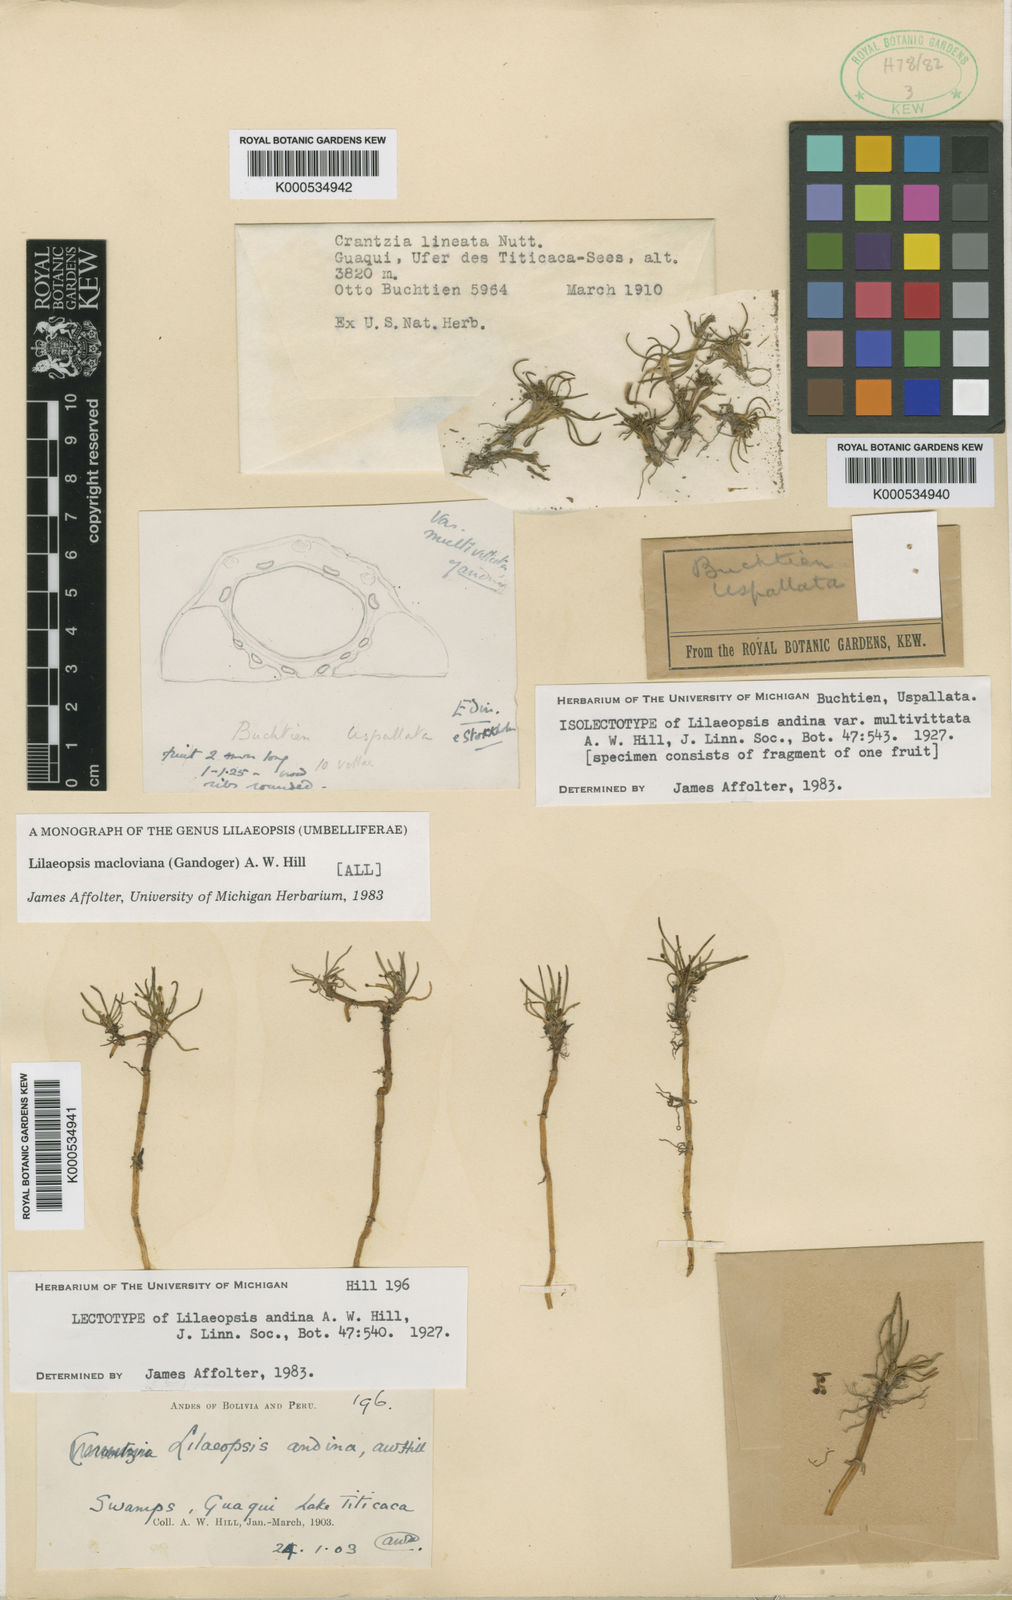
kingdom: Plantae
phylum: Tracheophyta
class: Magnoliopsida
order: Apiales
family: Apiaceae
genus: Lilaeopsis
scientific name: Lilaeopsis macloviana
